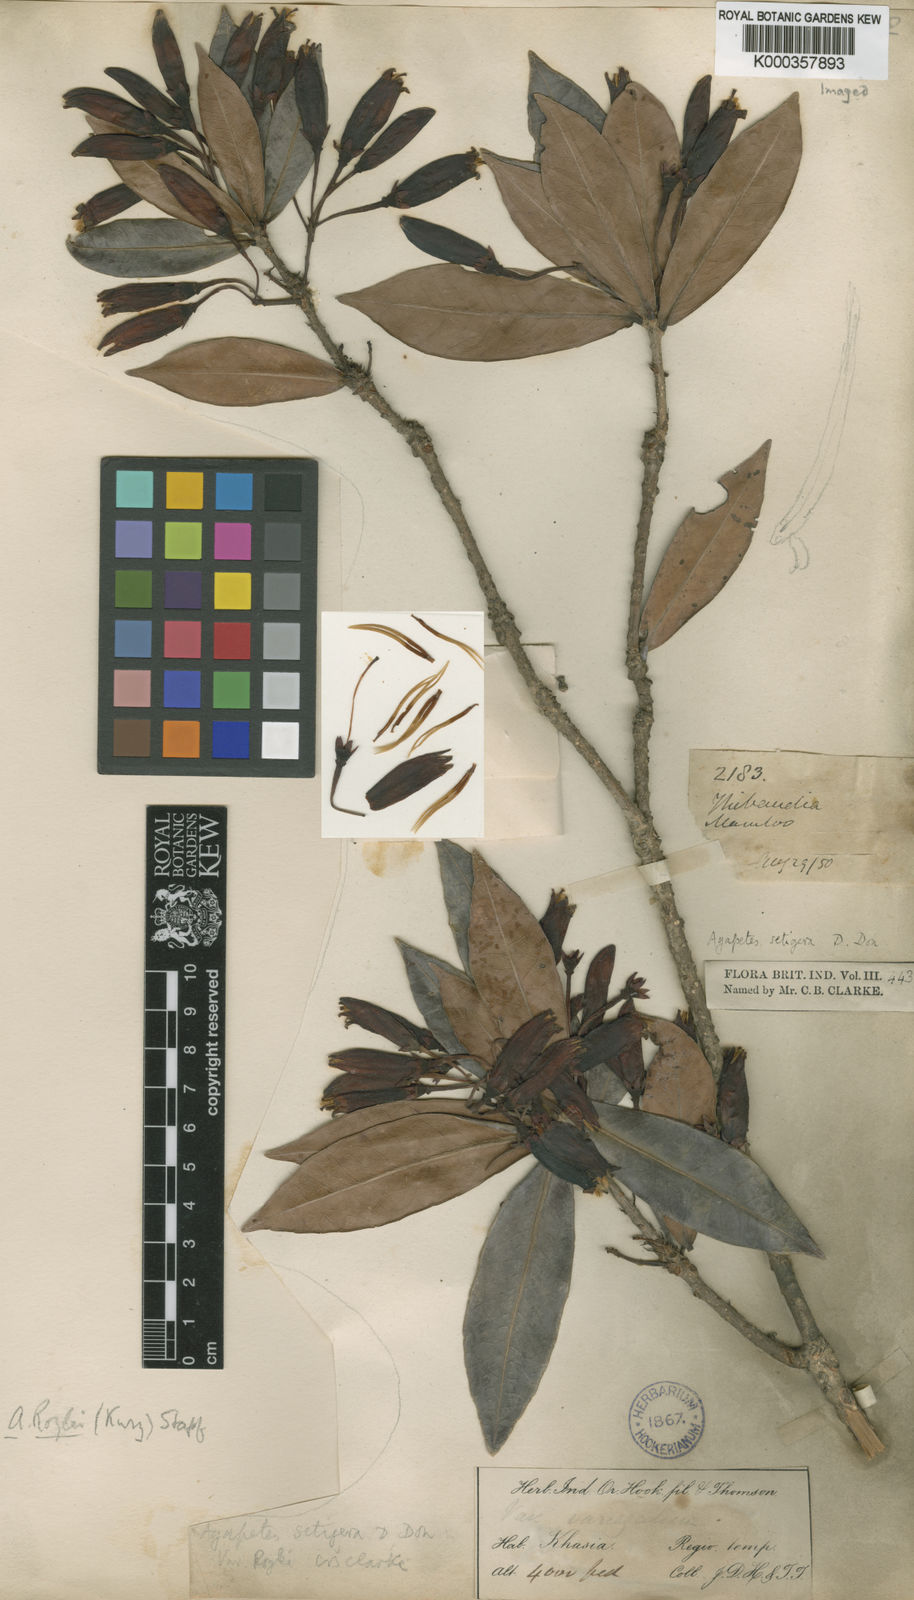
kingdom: Plantae
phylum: Tracheophyta
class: Magnoliopsida
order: Ericales
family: Ericaceae
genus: Agapetes
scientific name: Agapetes setigera
